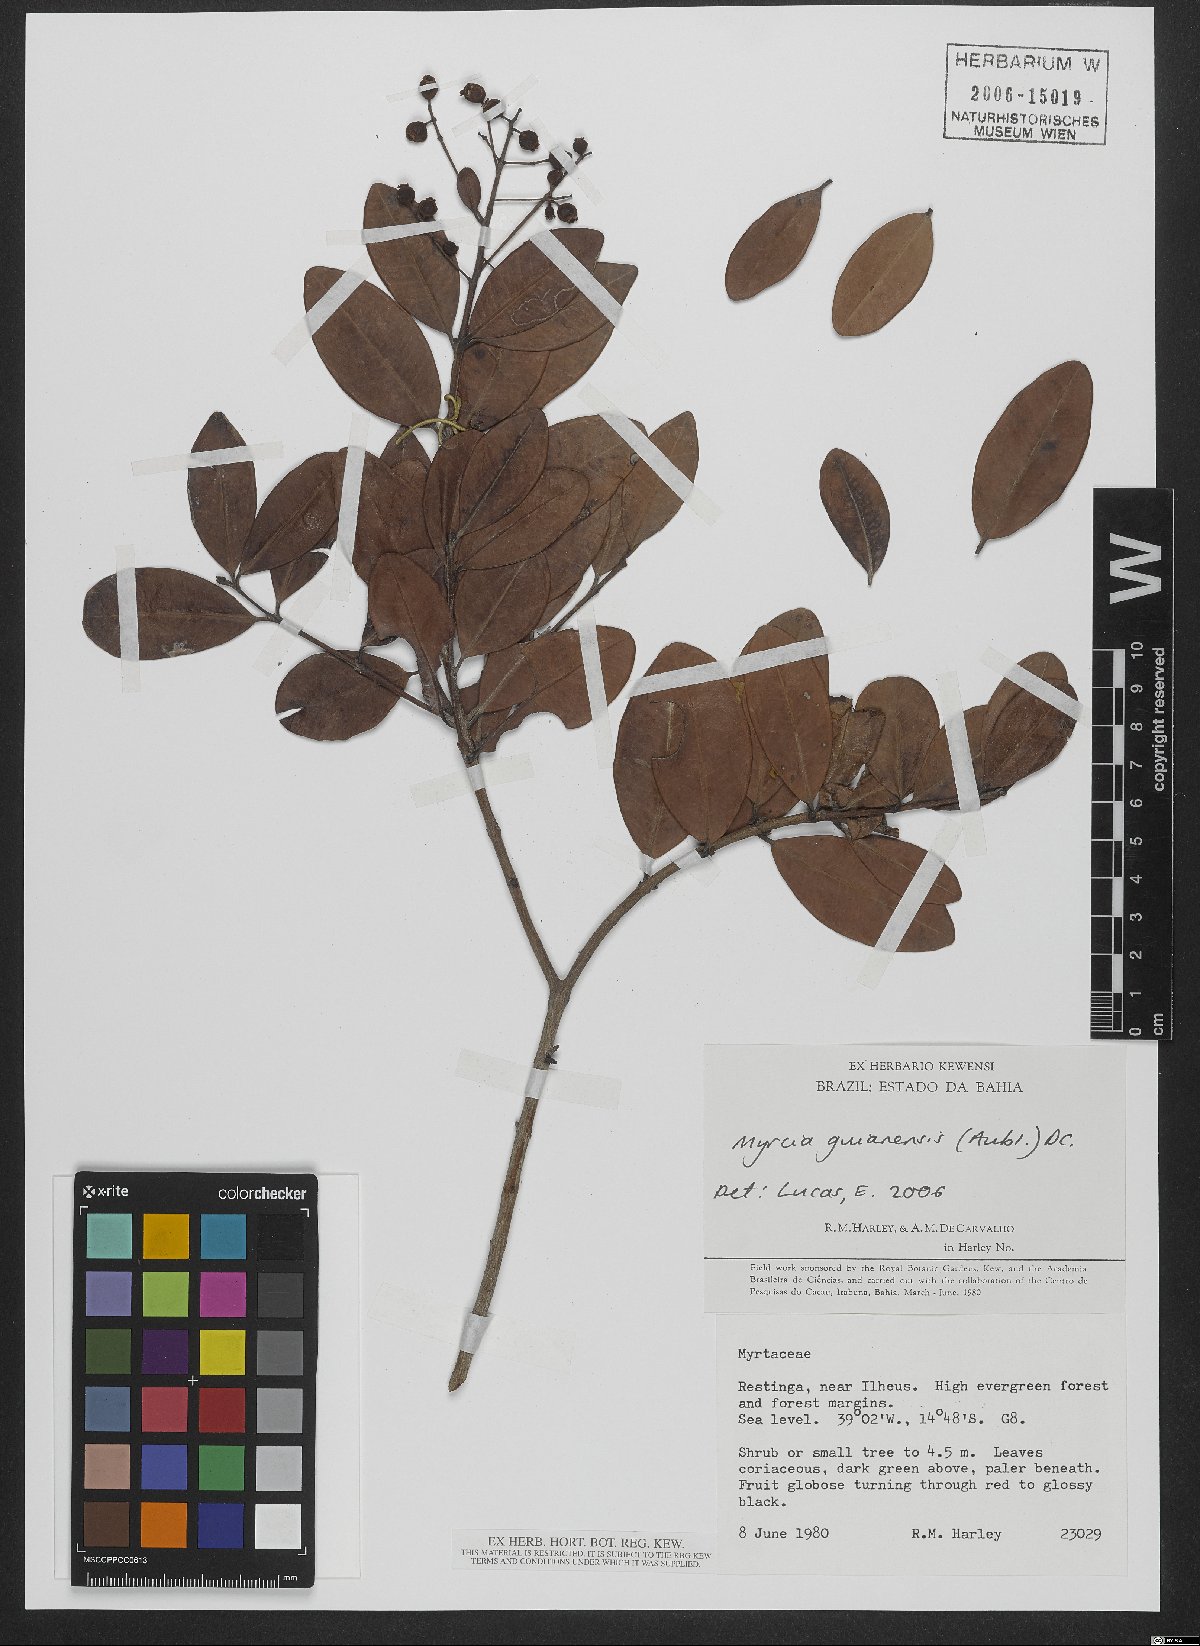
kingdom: Plantae
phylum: Tracheophyta
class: Magnoliopsida
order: Myrtales
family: Myrtaceae
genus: Myrcia
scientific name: Myrcia guianensis
